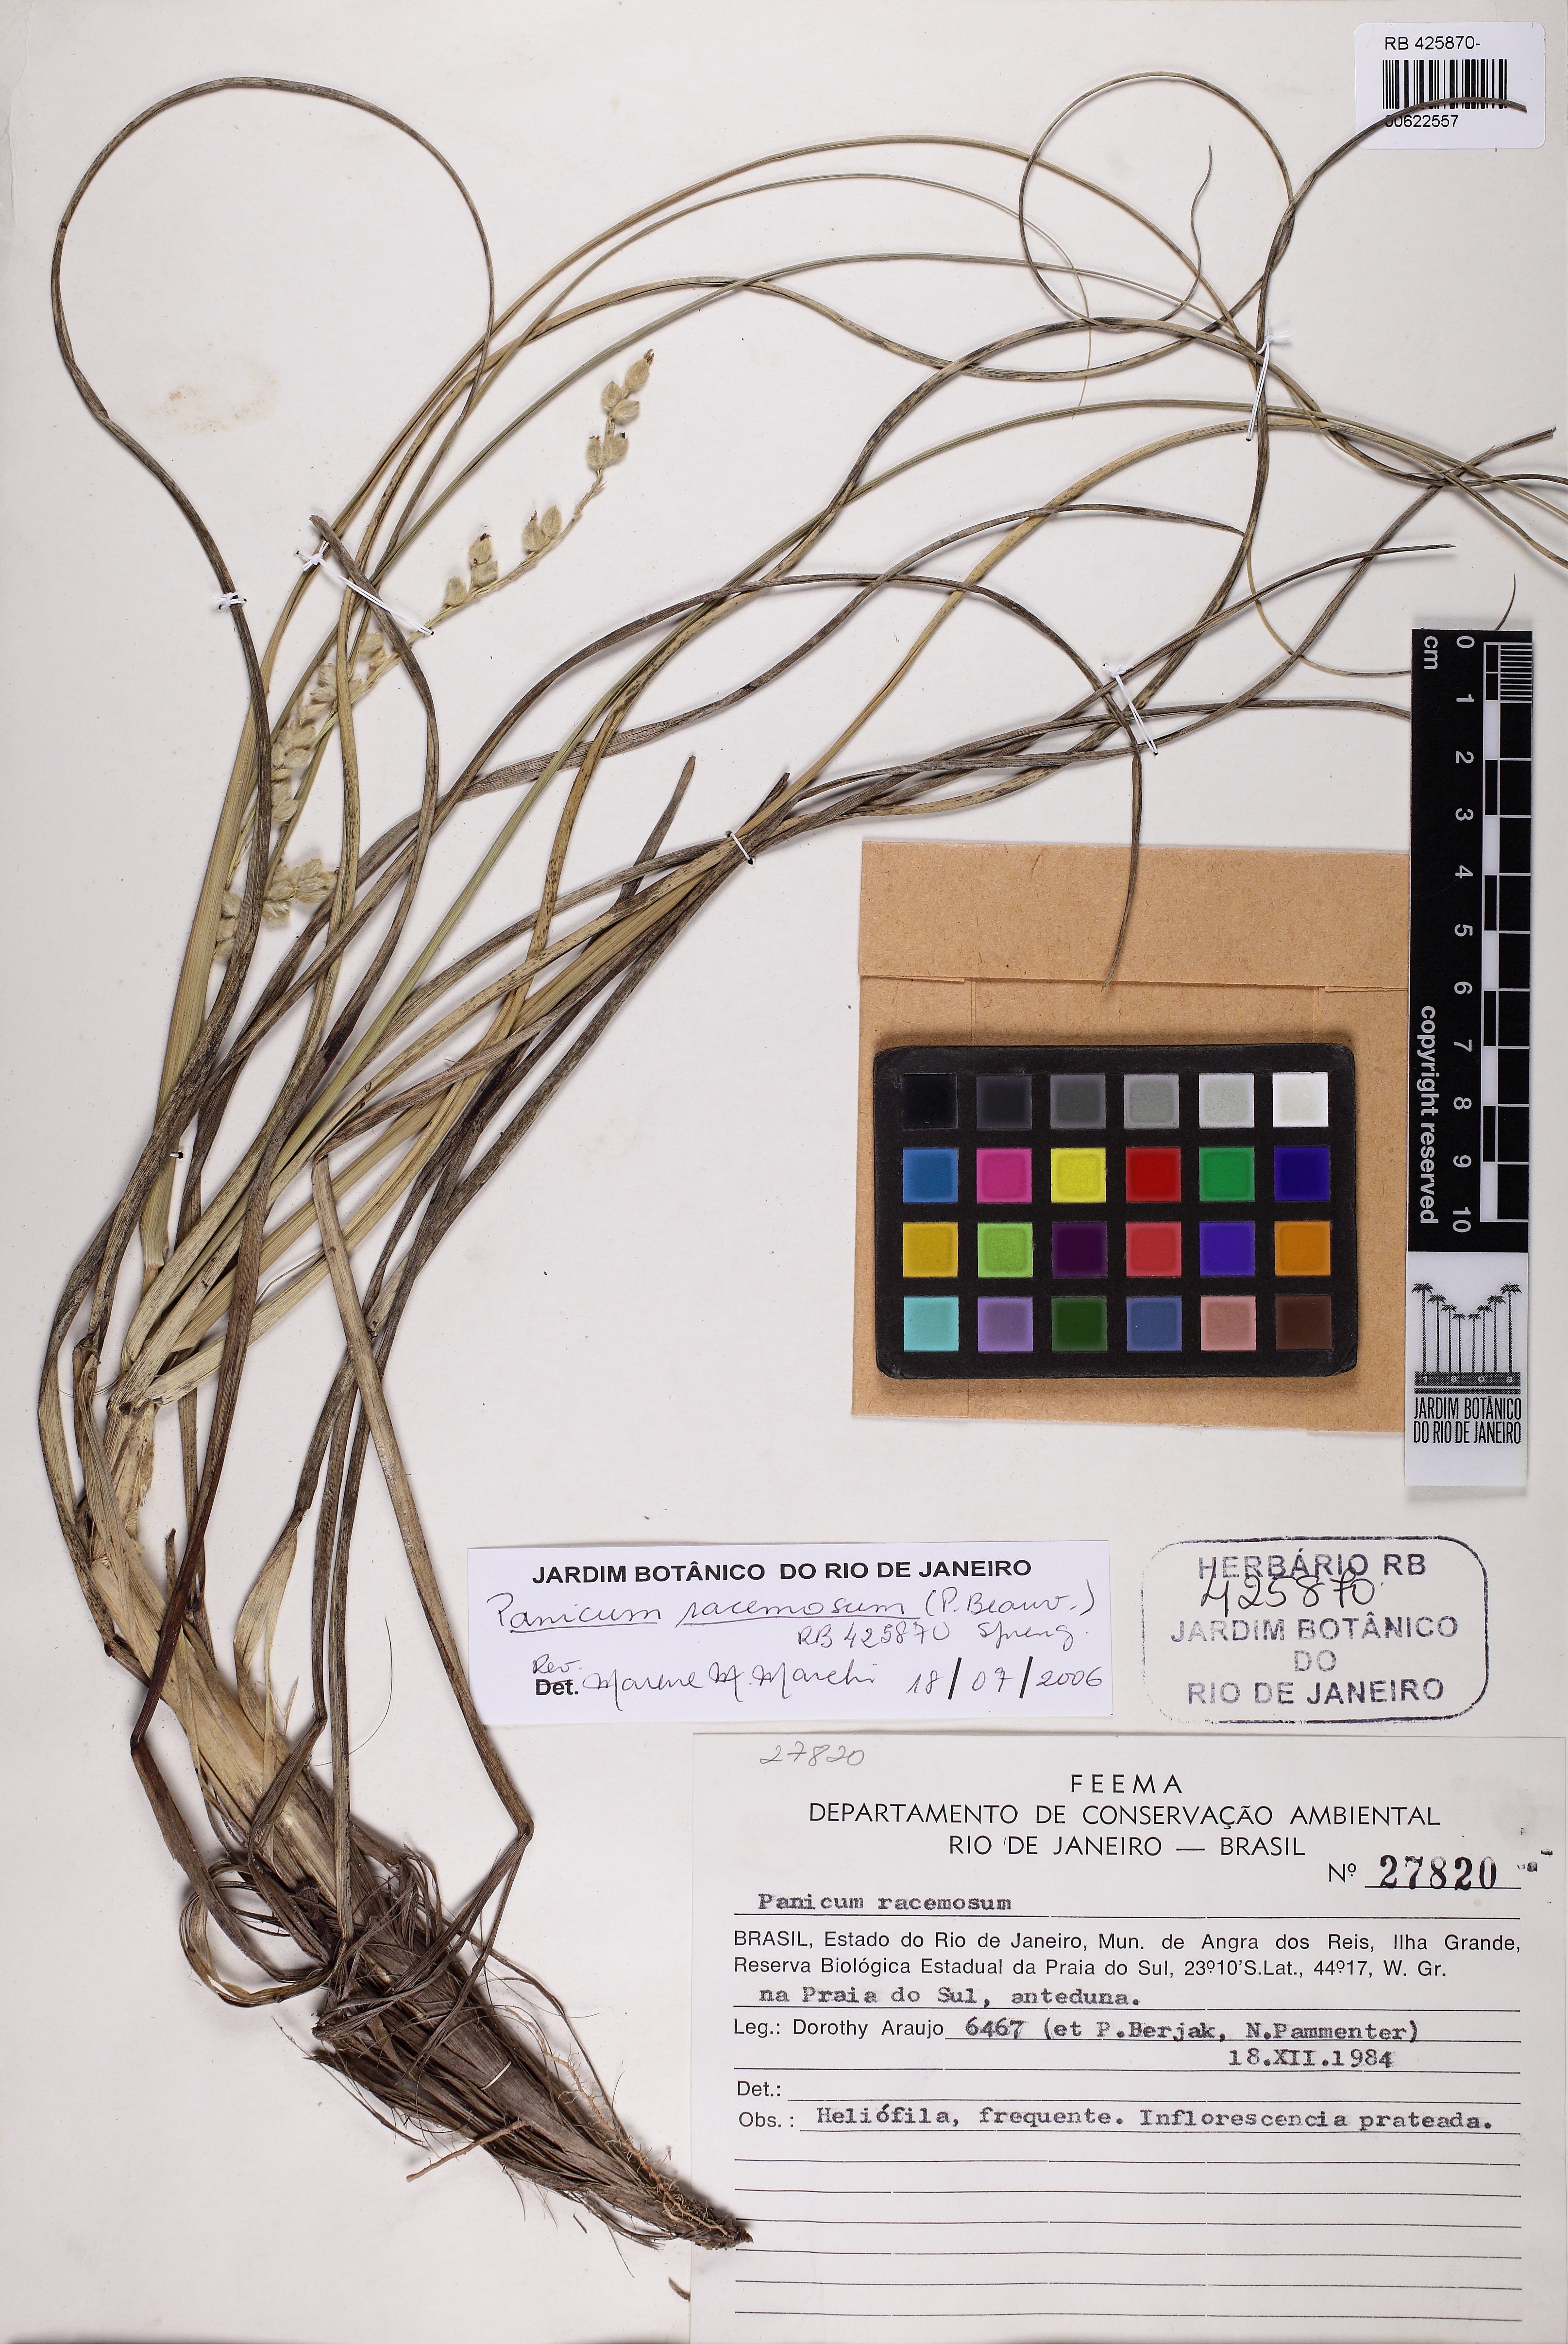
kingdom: Plantae
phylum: Tracheophyta
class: Liliopsida
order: Poales
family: Poaceae
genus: Panicum
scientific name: Panicum racemosum
